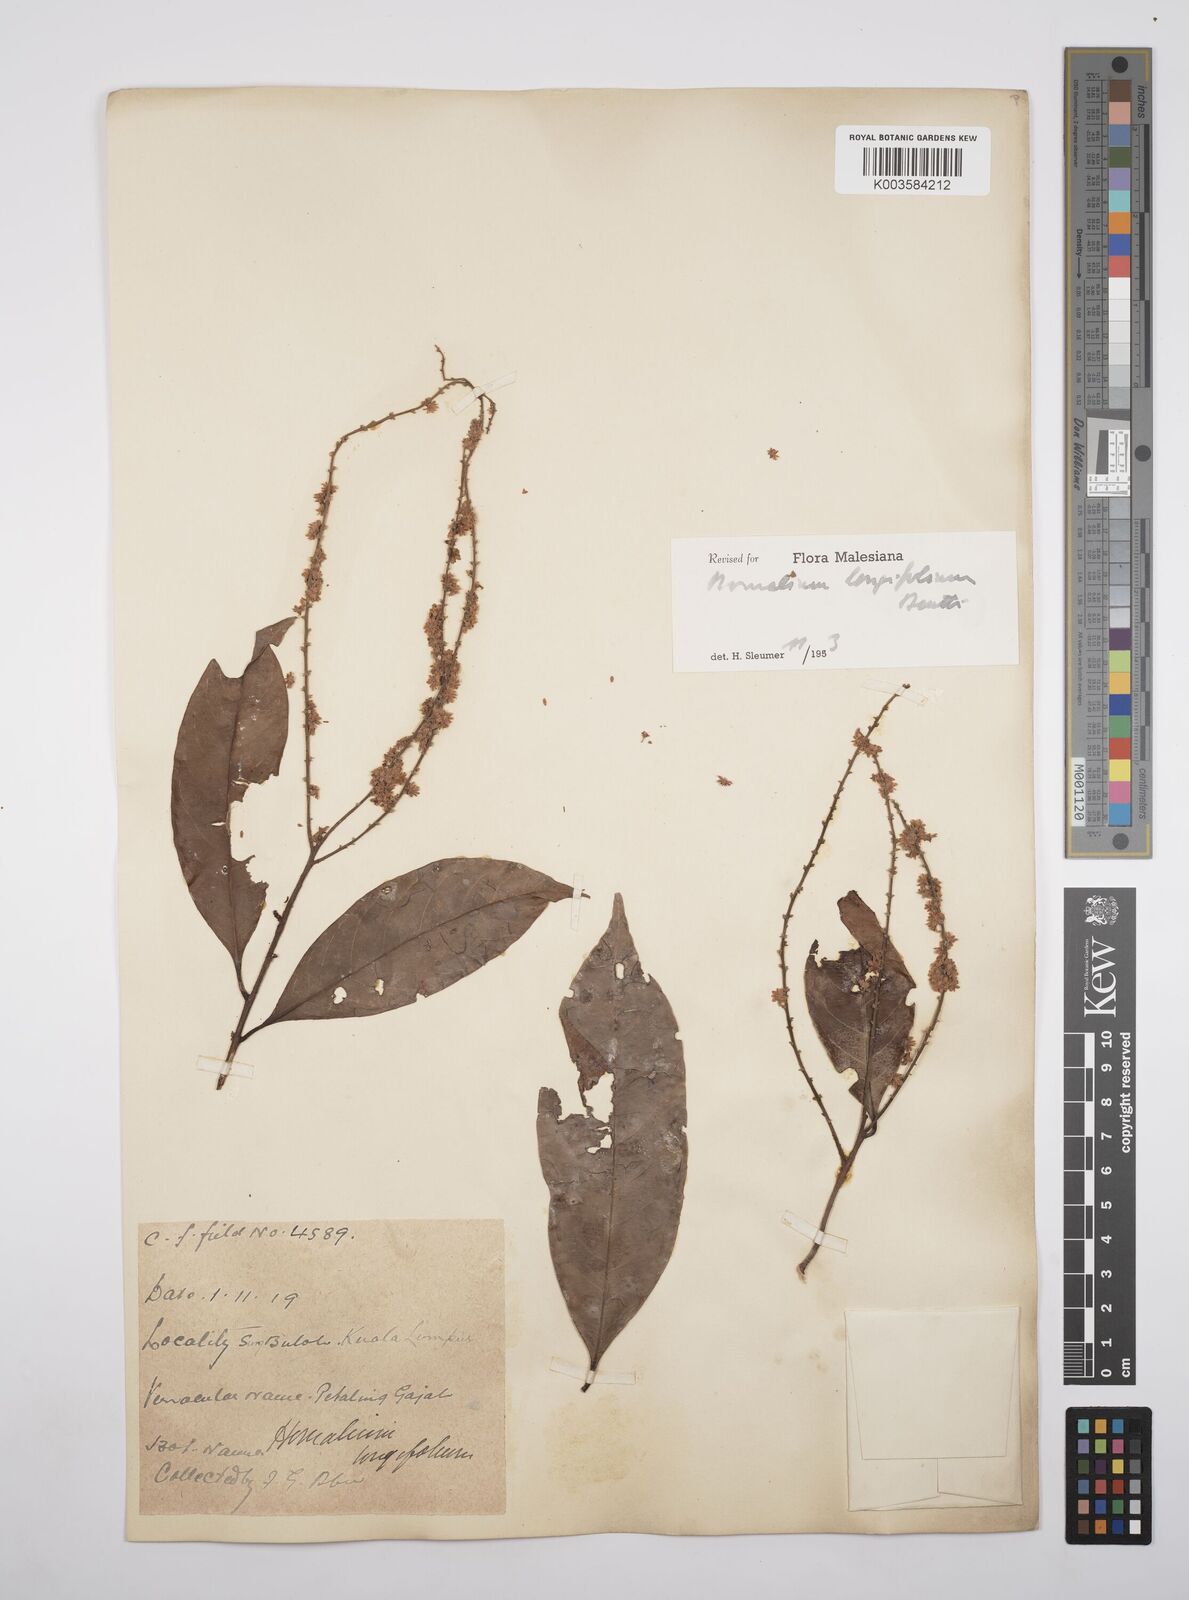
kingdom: Plantae
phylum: Tracheophyta
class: Magnoliopsida
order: Malpighiales
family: Salicaceae
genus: Homalium
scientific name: Homalium longifolium
